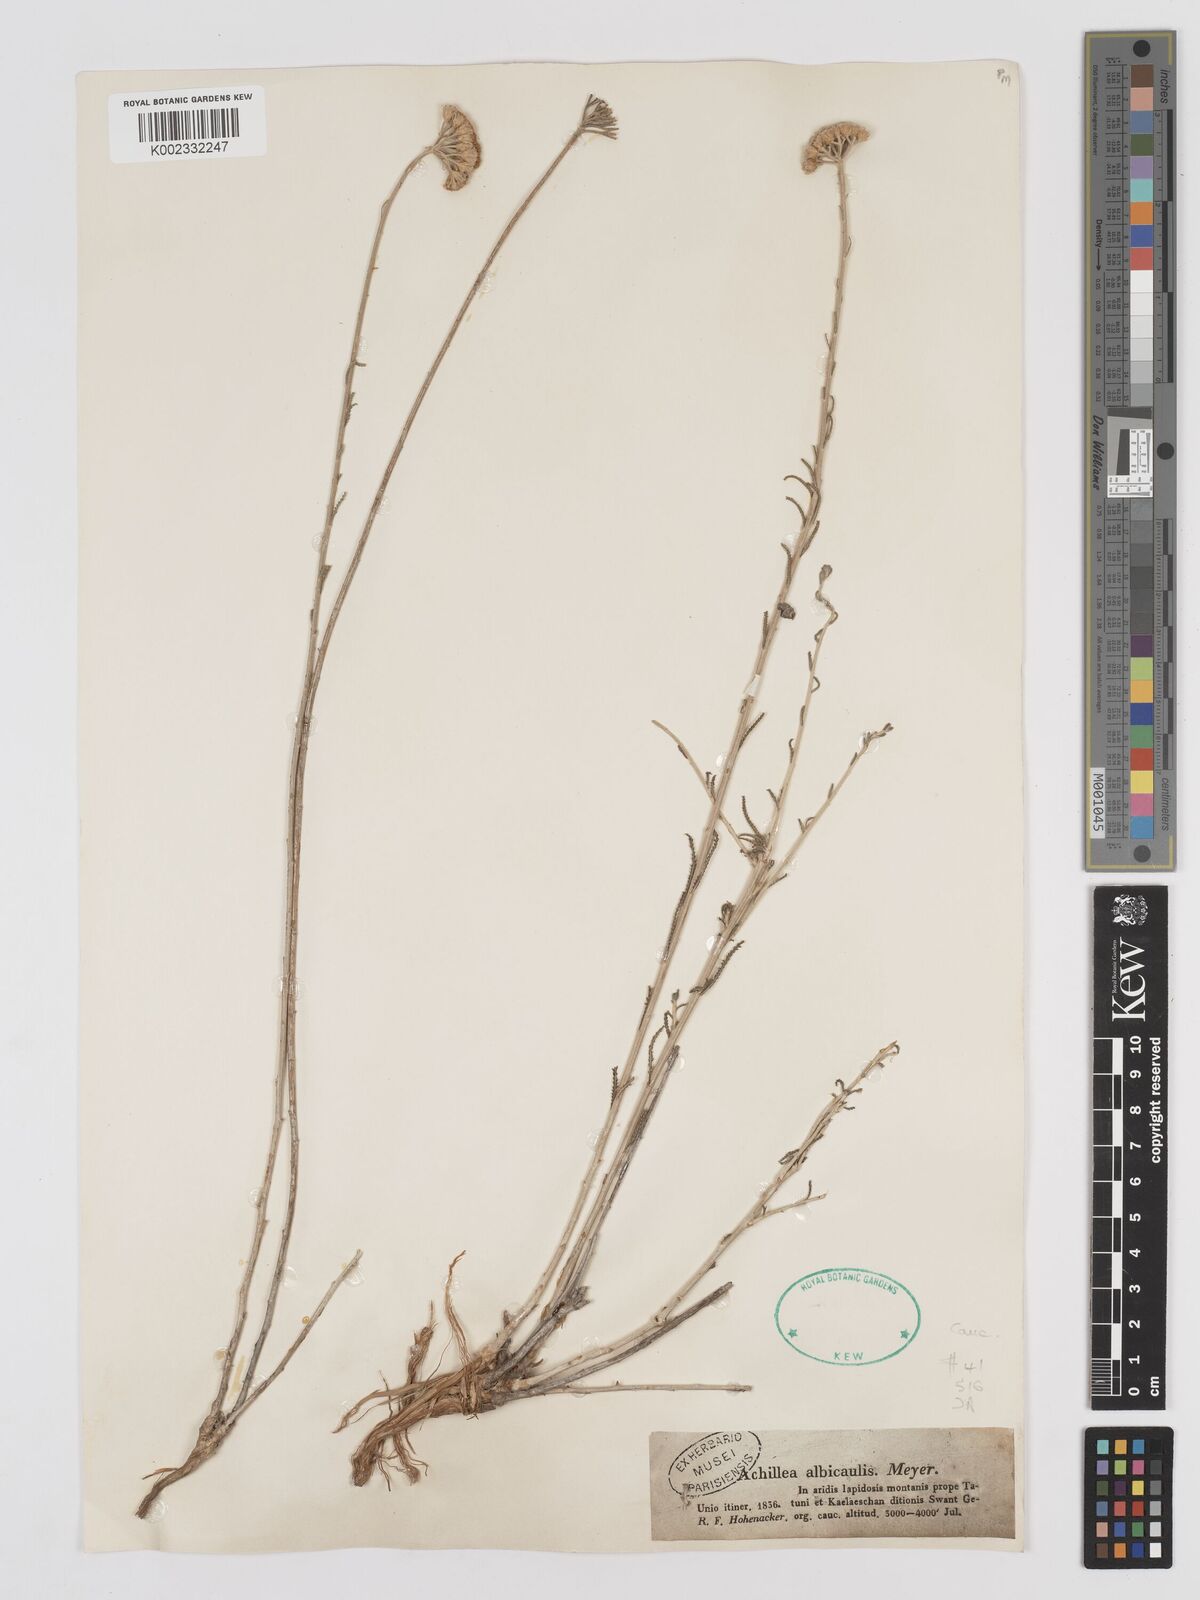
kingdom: Plantae
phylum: Tracheophyta
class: Magnoliopsida
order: Asterales
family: Asteraceae
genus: Achillea
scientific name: Achillea tenuifolia
